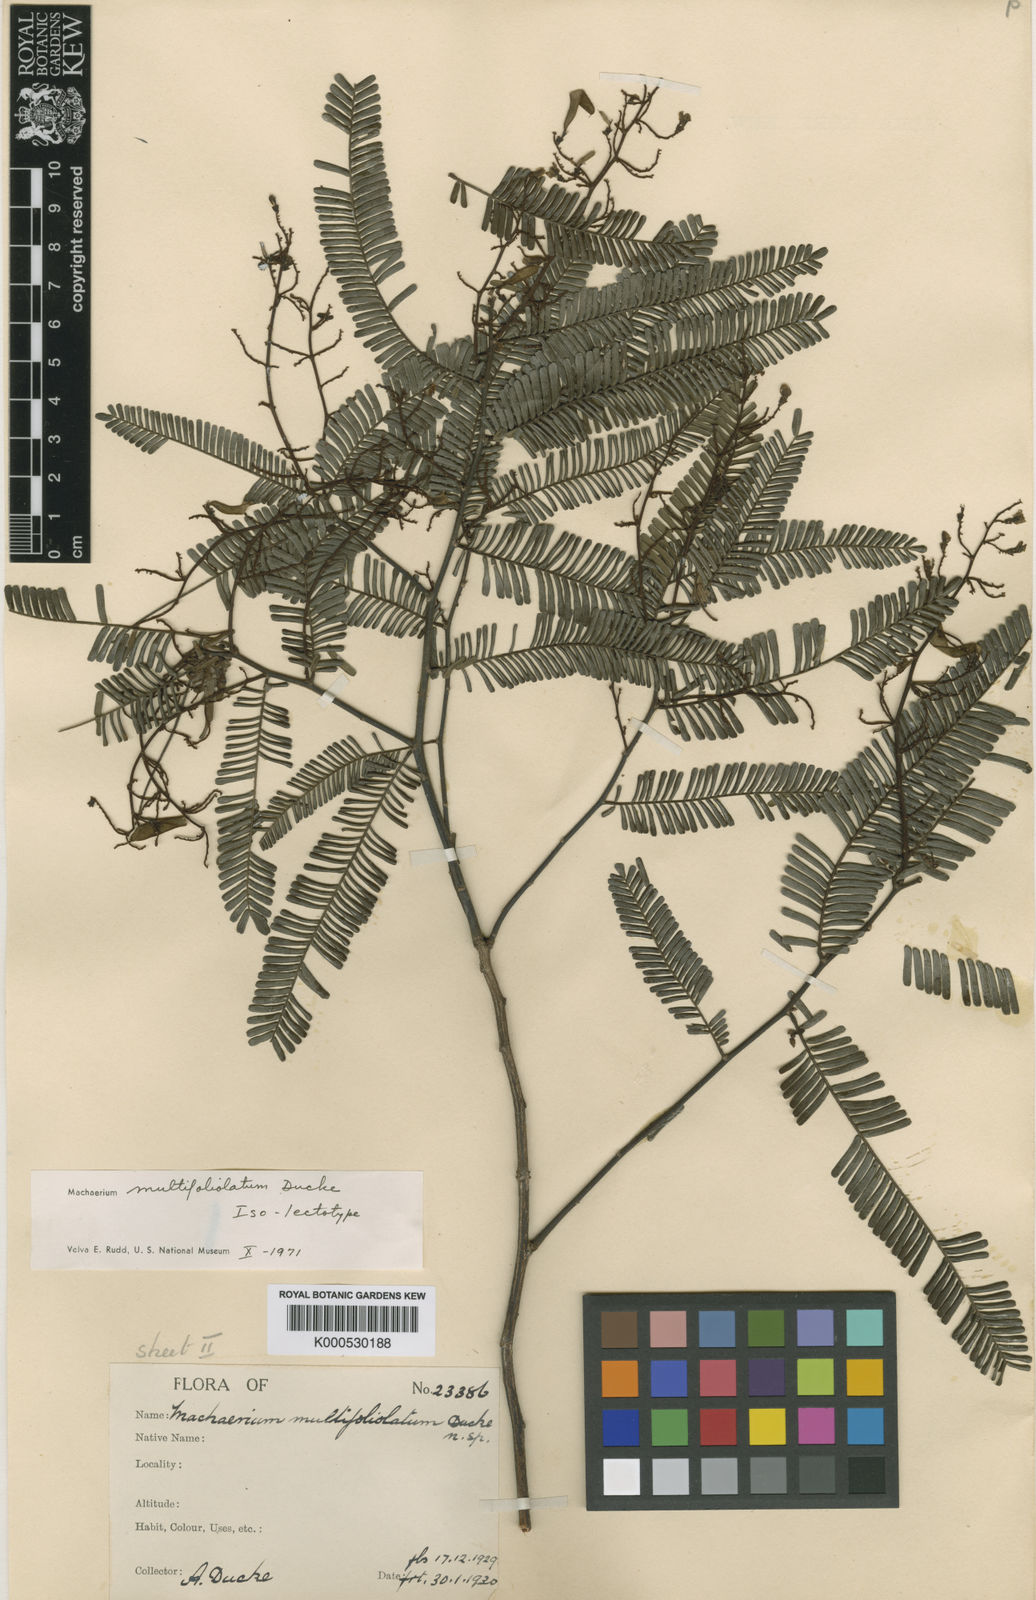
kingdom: Plantae
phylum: Tracheophyta
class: Magnoliopsida
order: Fabales
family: Fabaceae
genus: Machaerium
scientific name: Machaerium multifoliolatum
